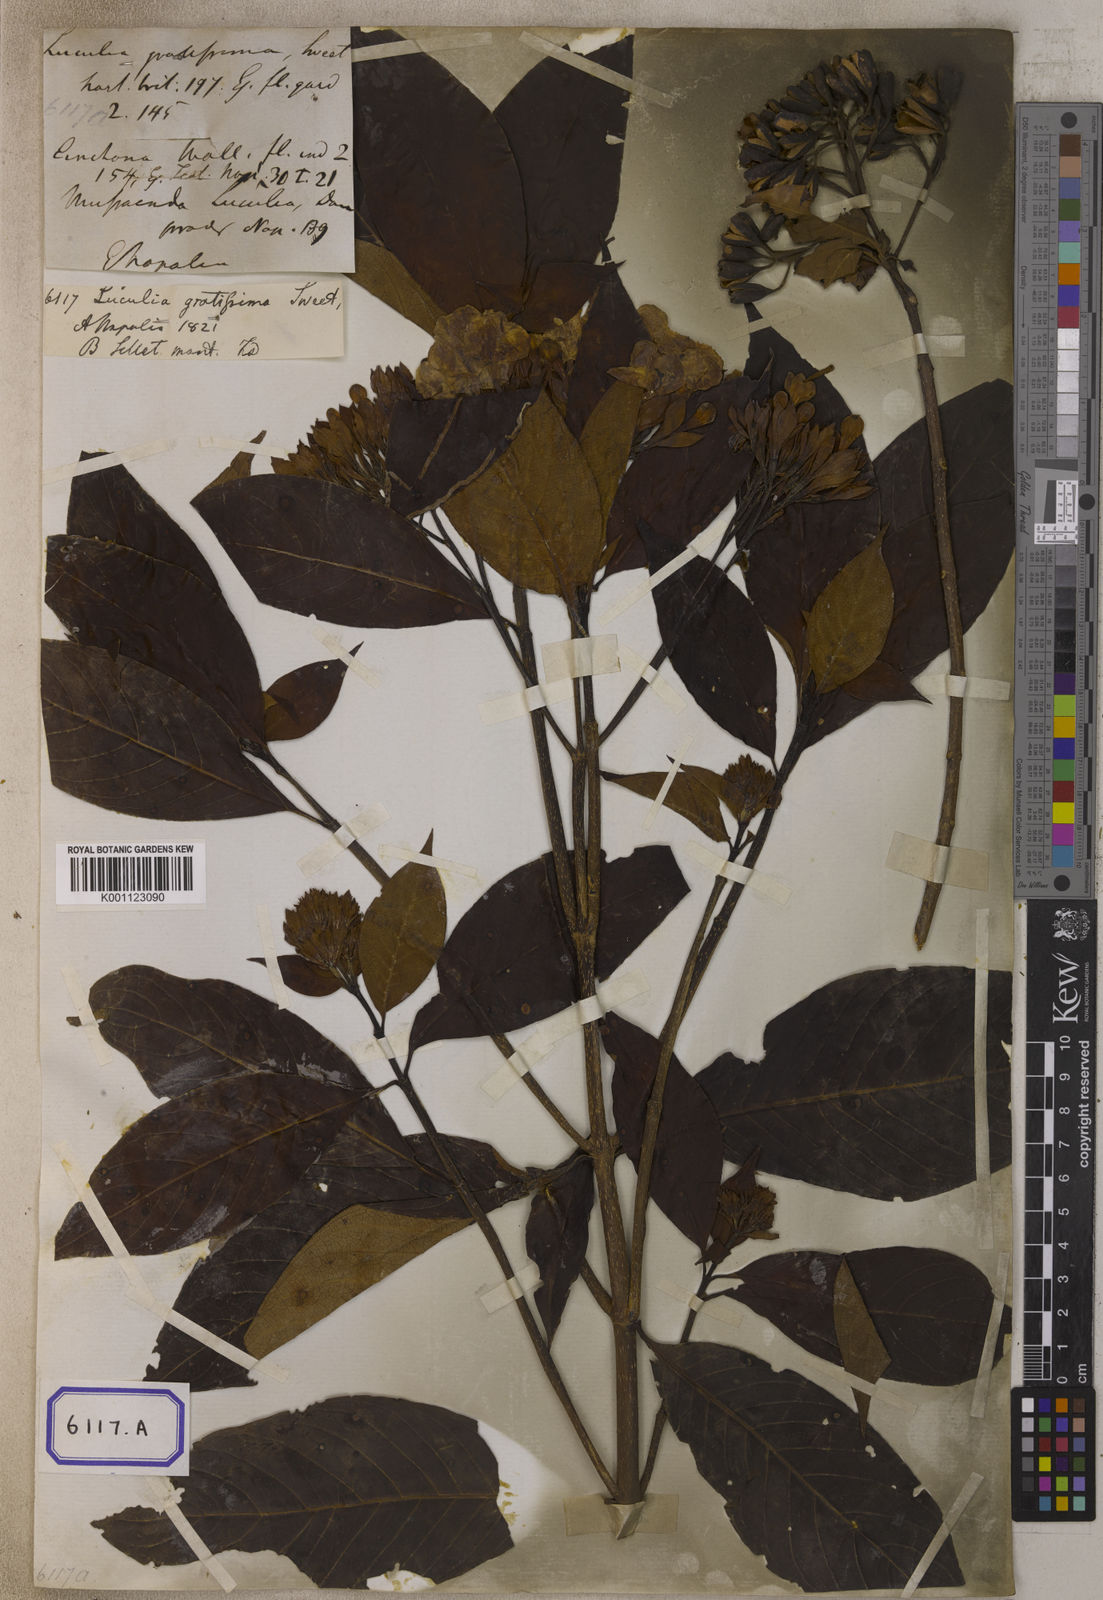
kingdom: Plantae
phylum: Tracheophyta
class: Magnoliopsida
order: Gentianales
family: Rubiaceae
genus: Luculia
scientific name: Luculia gratissima
